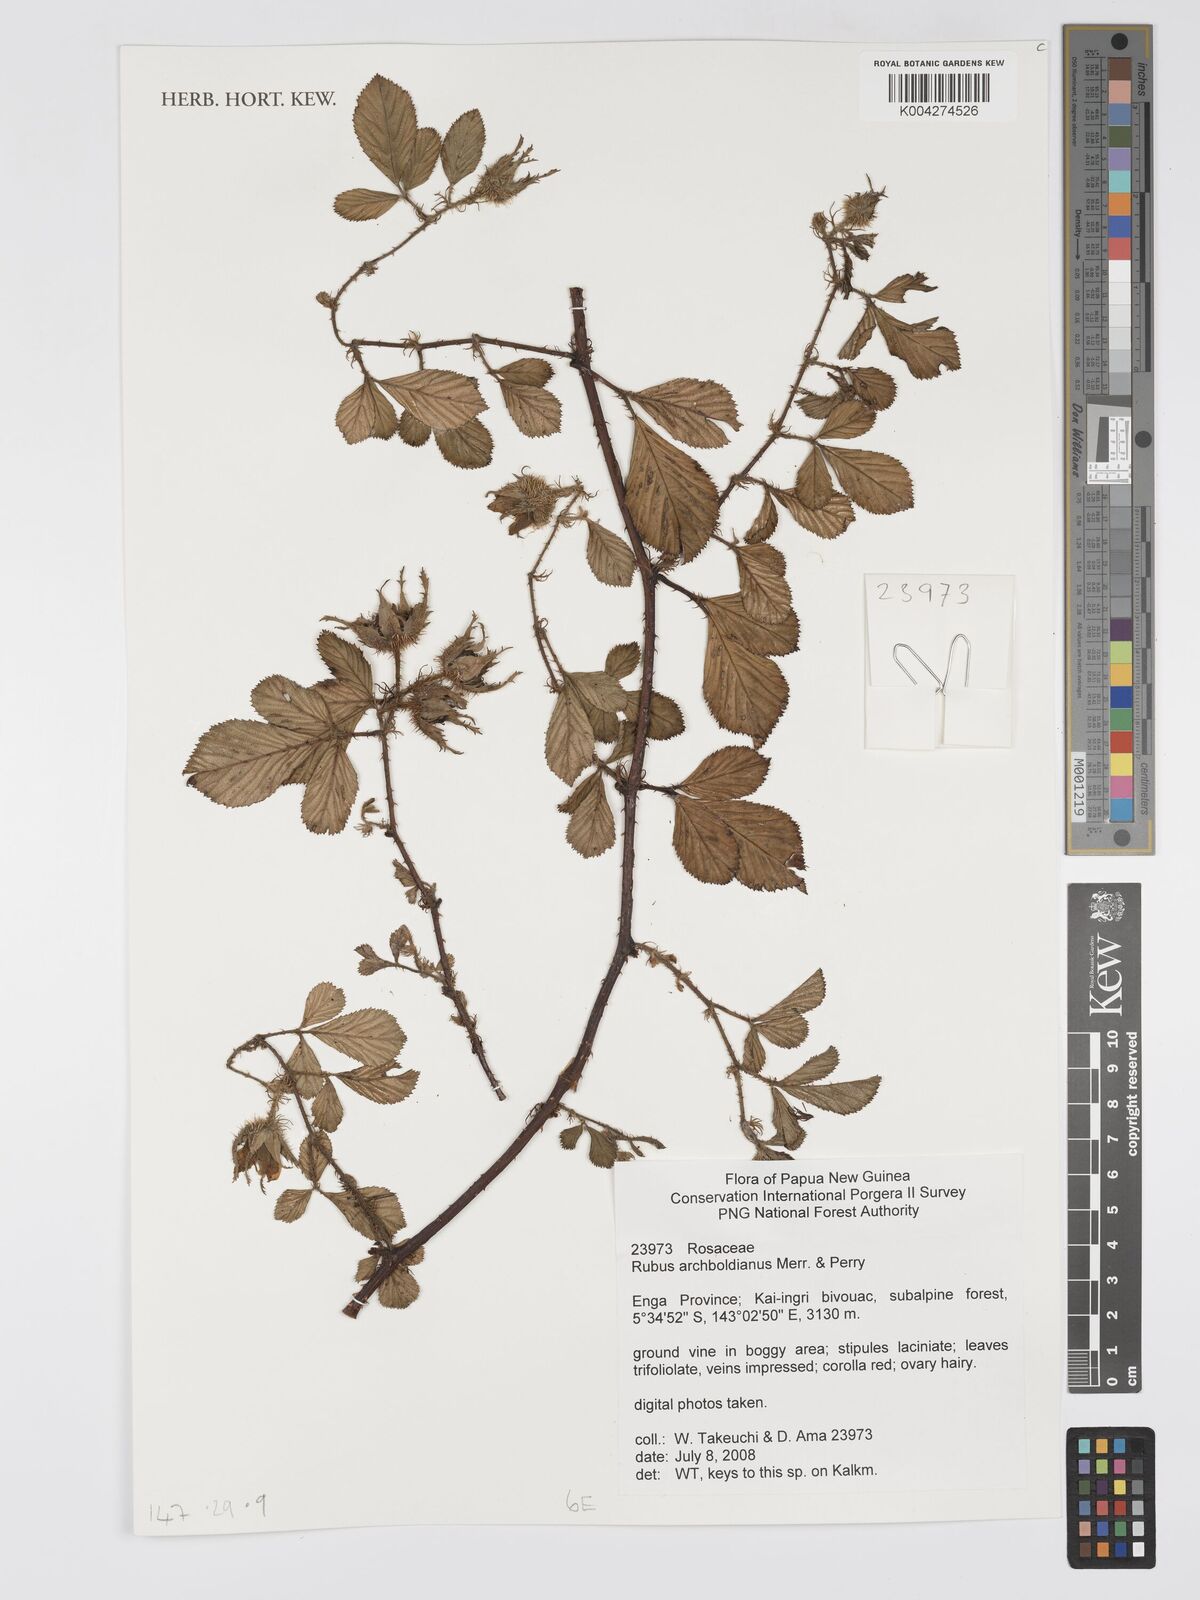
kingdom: Plantae
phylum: Tracheophyta
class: Magnoliopsida
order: Rosales
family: Rosaceae
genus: Rubus
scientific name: Rubus archboldianus
